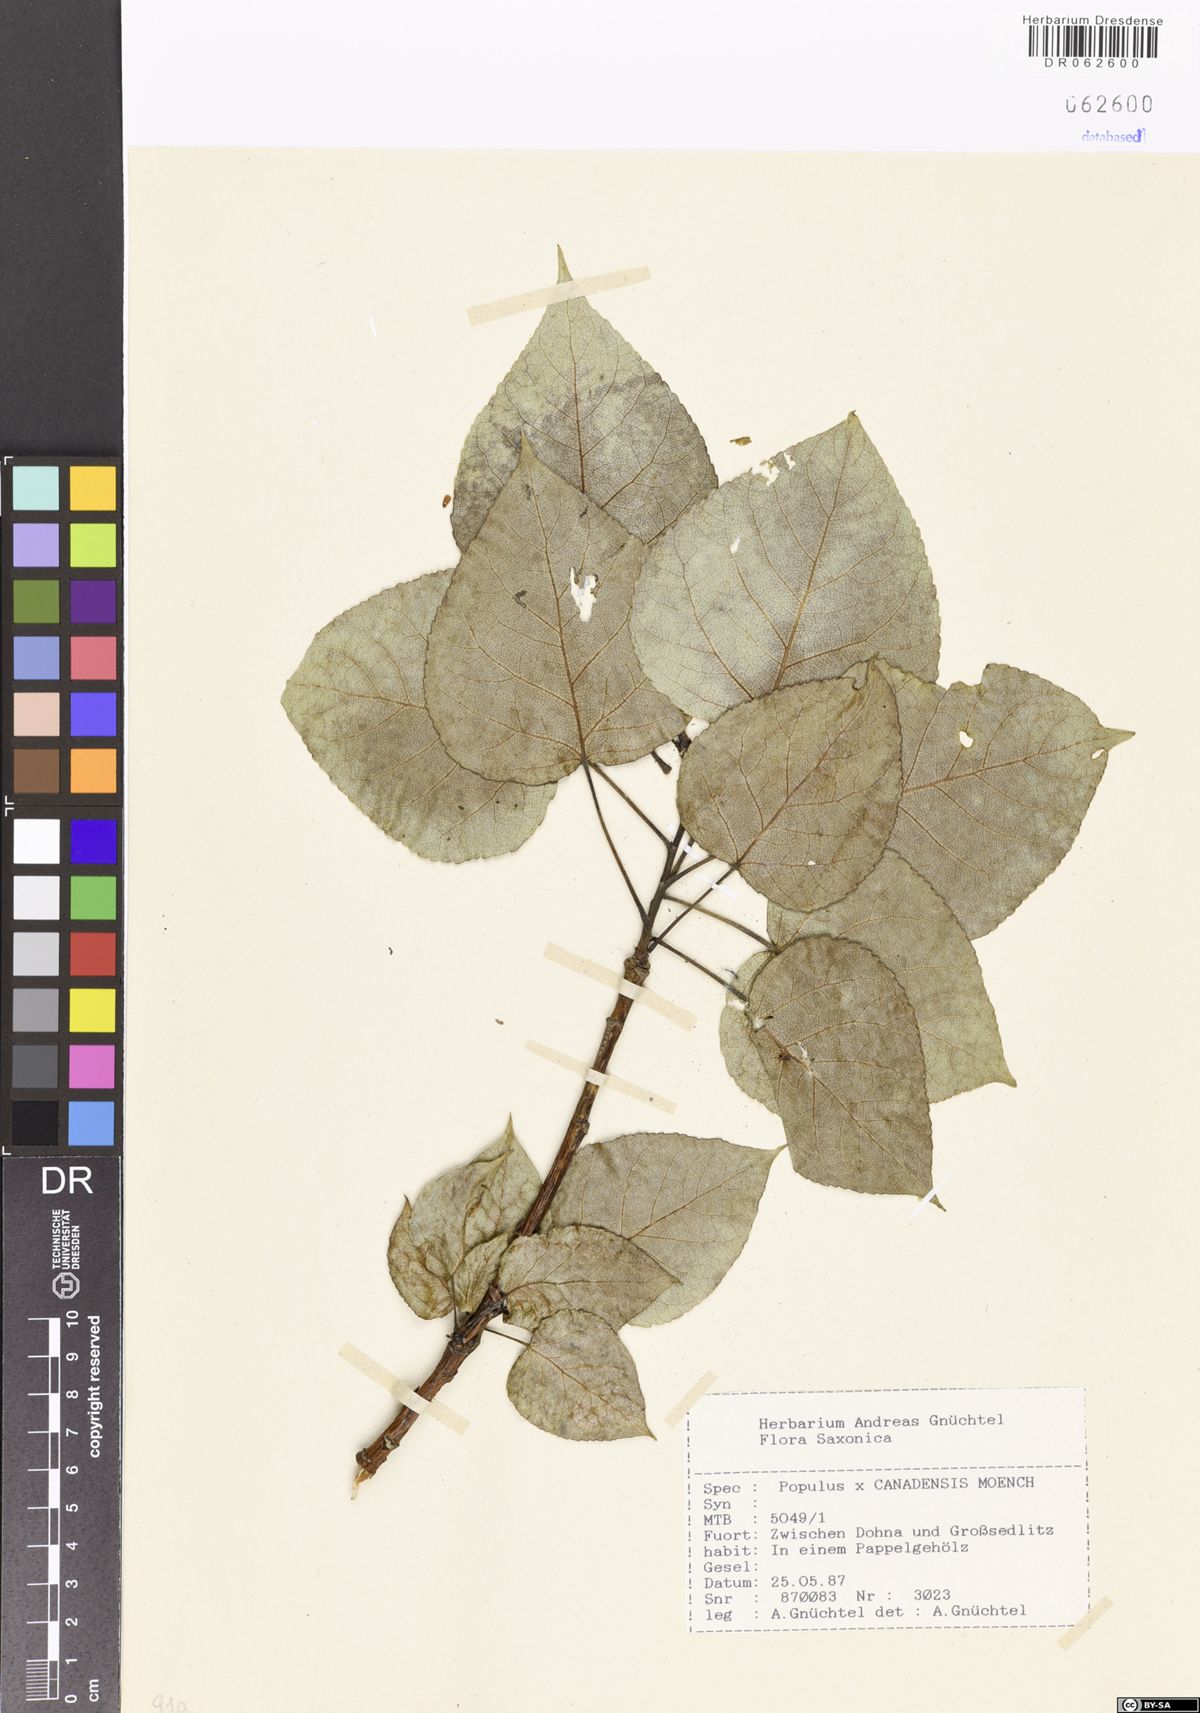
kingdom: Plantae
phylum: Tracheophyta
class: Magnoliopsida
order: Malpighiales
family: Salicaceae
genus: Populus
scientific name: Populus canadensis
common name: Carolina poplar
